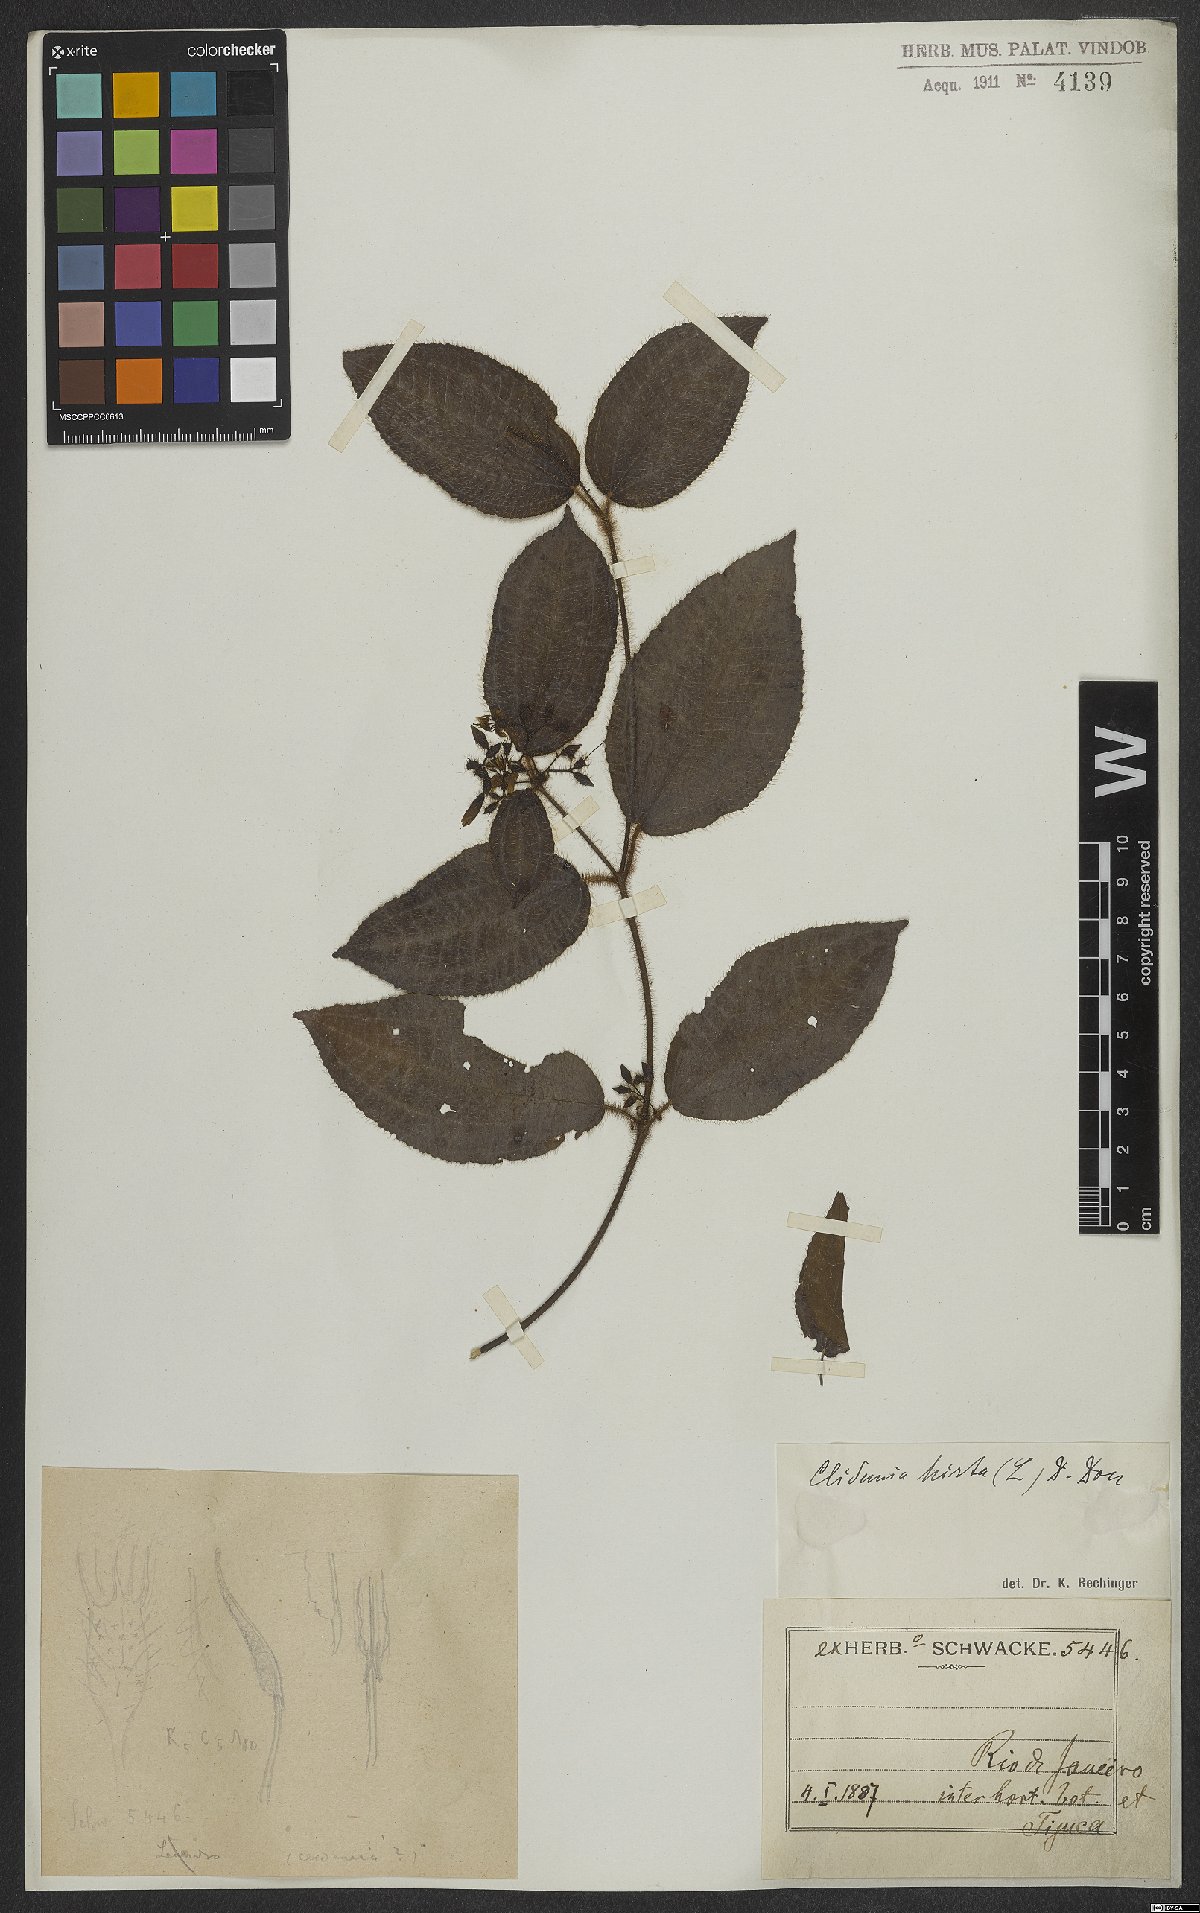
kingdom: Plantae
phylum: Tracheophyta
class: Magnoliopsida
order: Myrtales
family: Melastomataceae
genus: Miconia
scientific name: Miconia crenata
